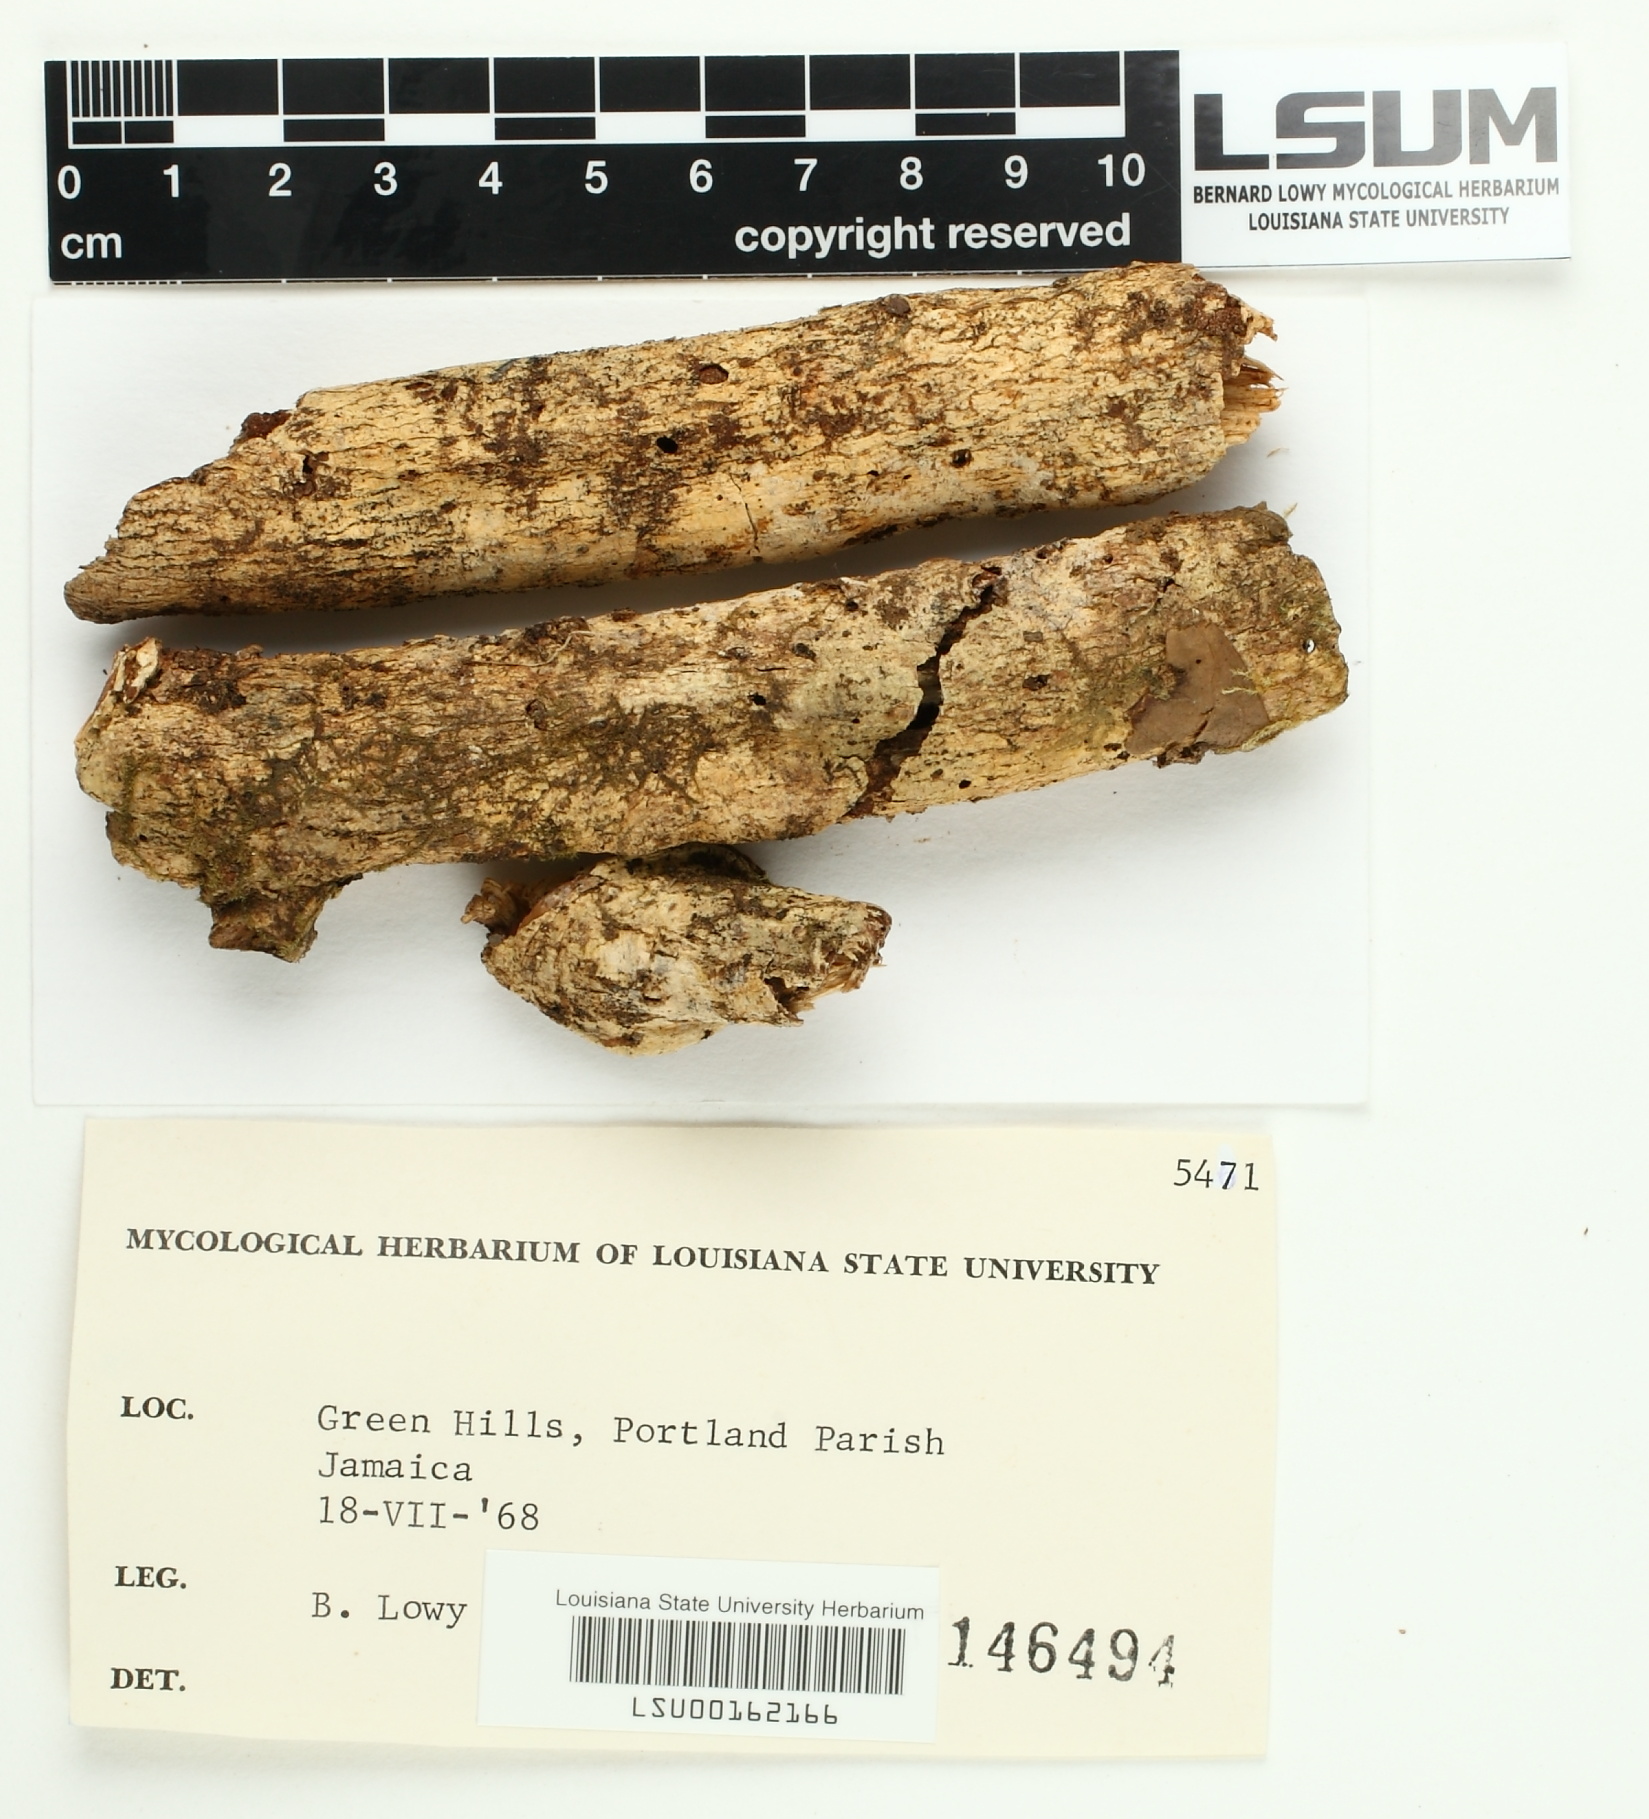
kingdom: Fungi
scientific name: Fungi
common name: Fungi
